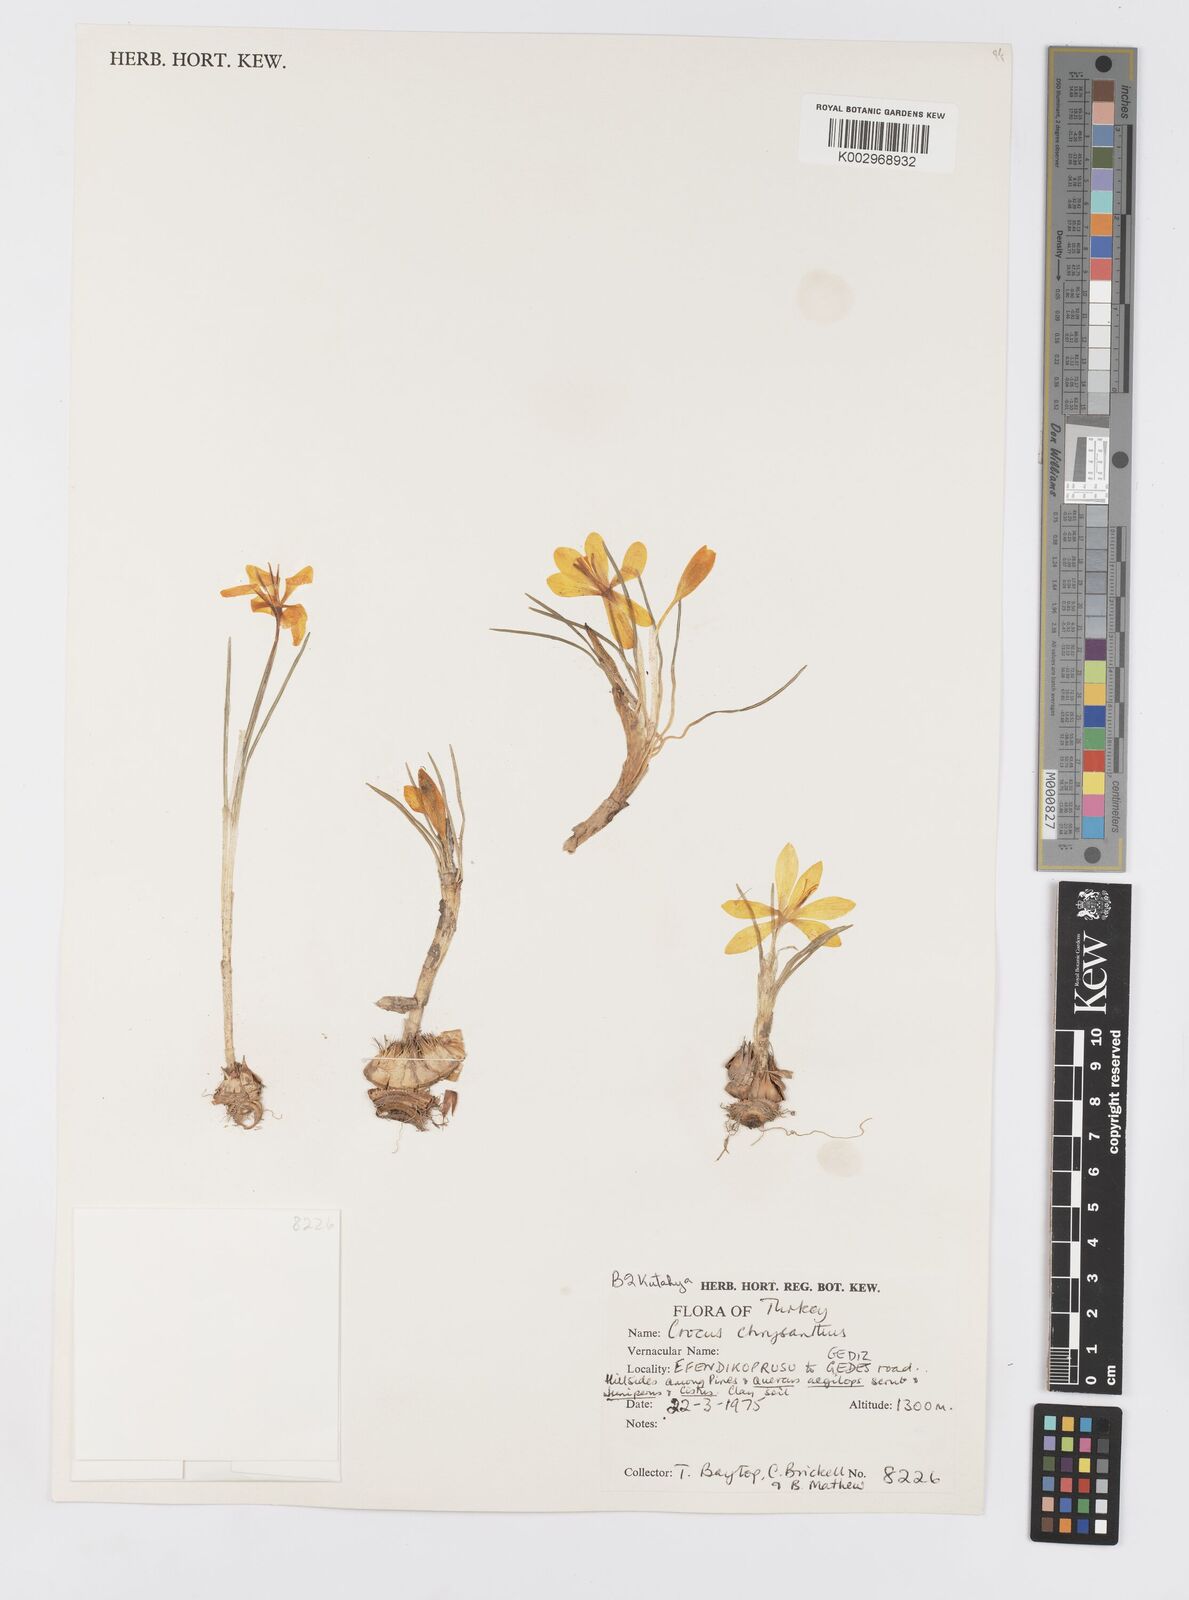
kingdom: Plantae
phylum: Tracheophyta
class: Liliopsida
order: Asparagales
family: Iridaceae
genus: Crocus
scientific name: Crocus chrysanthus
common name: Golden crocus
